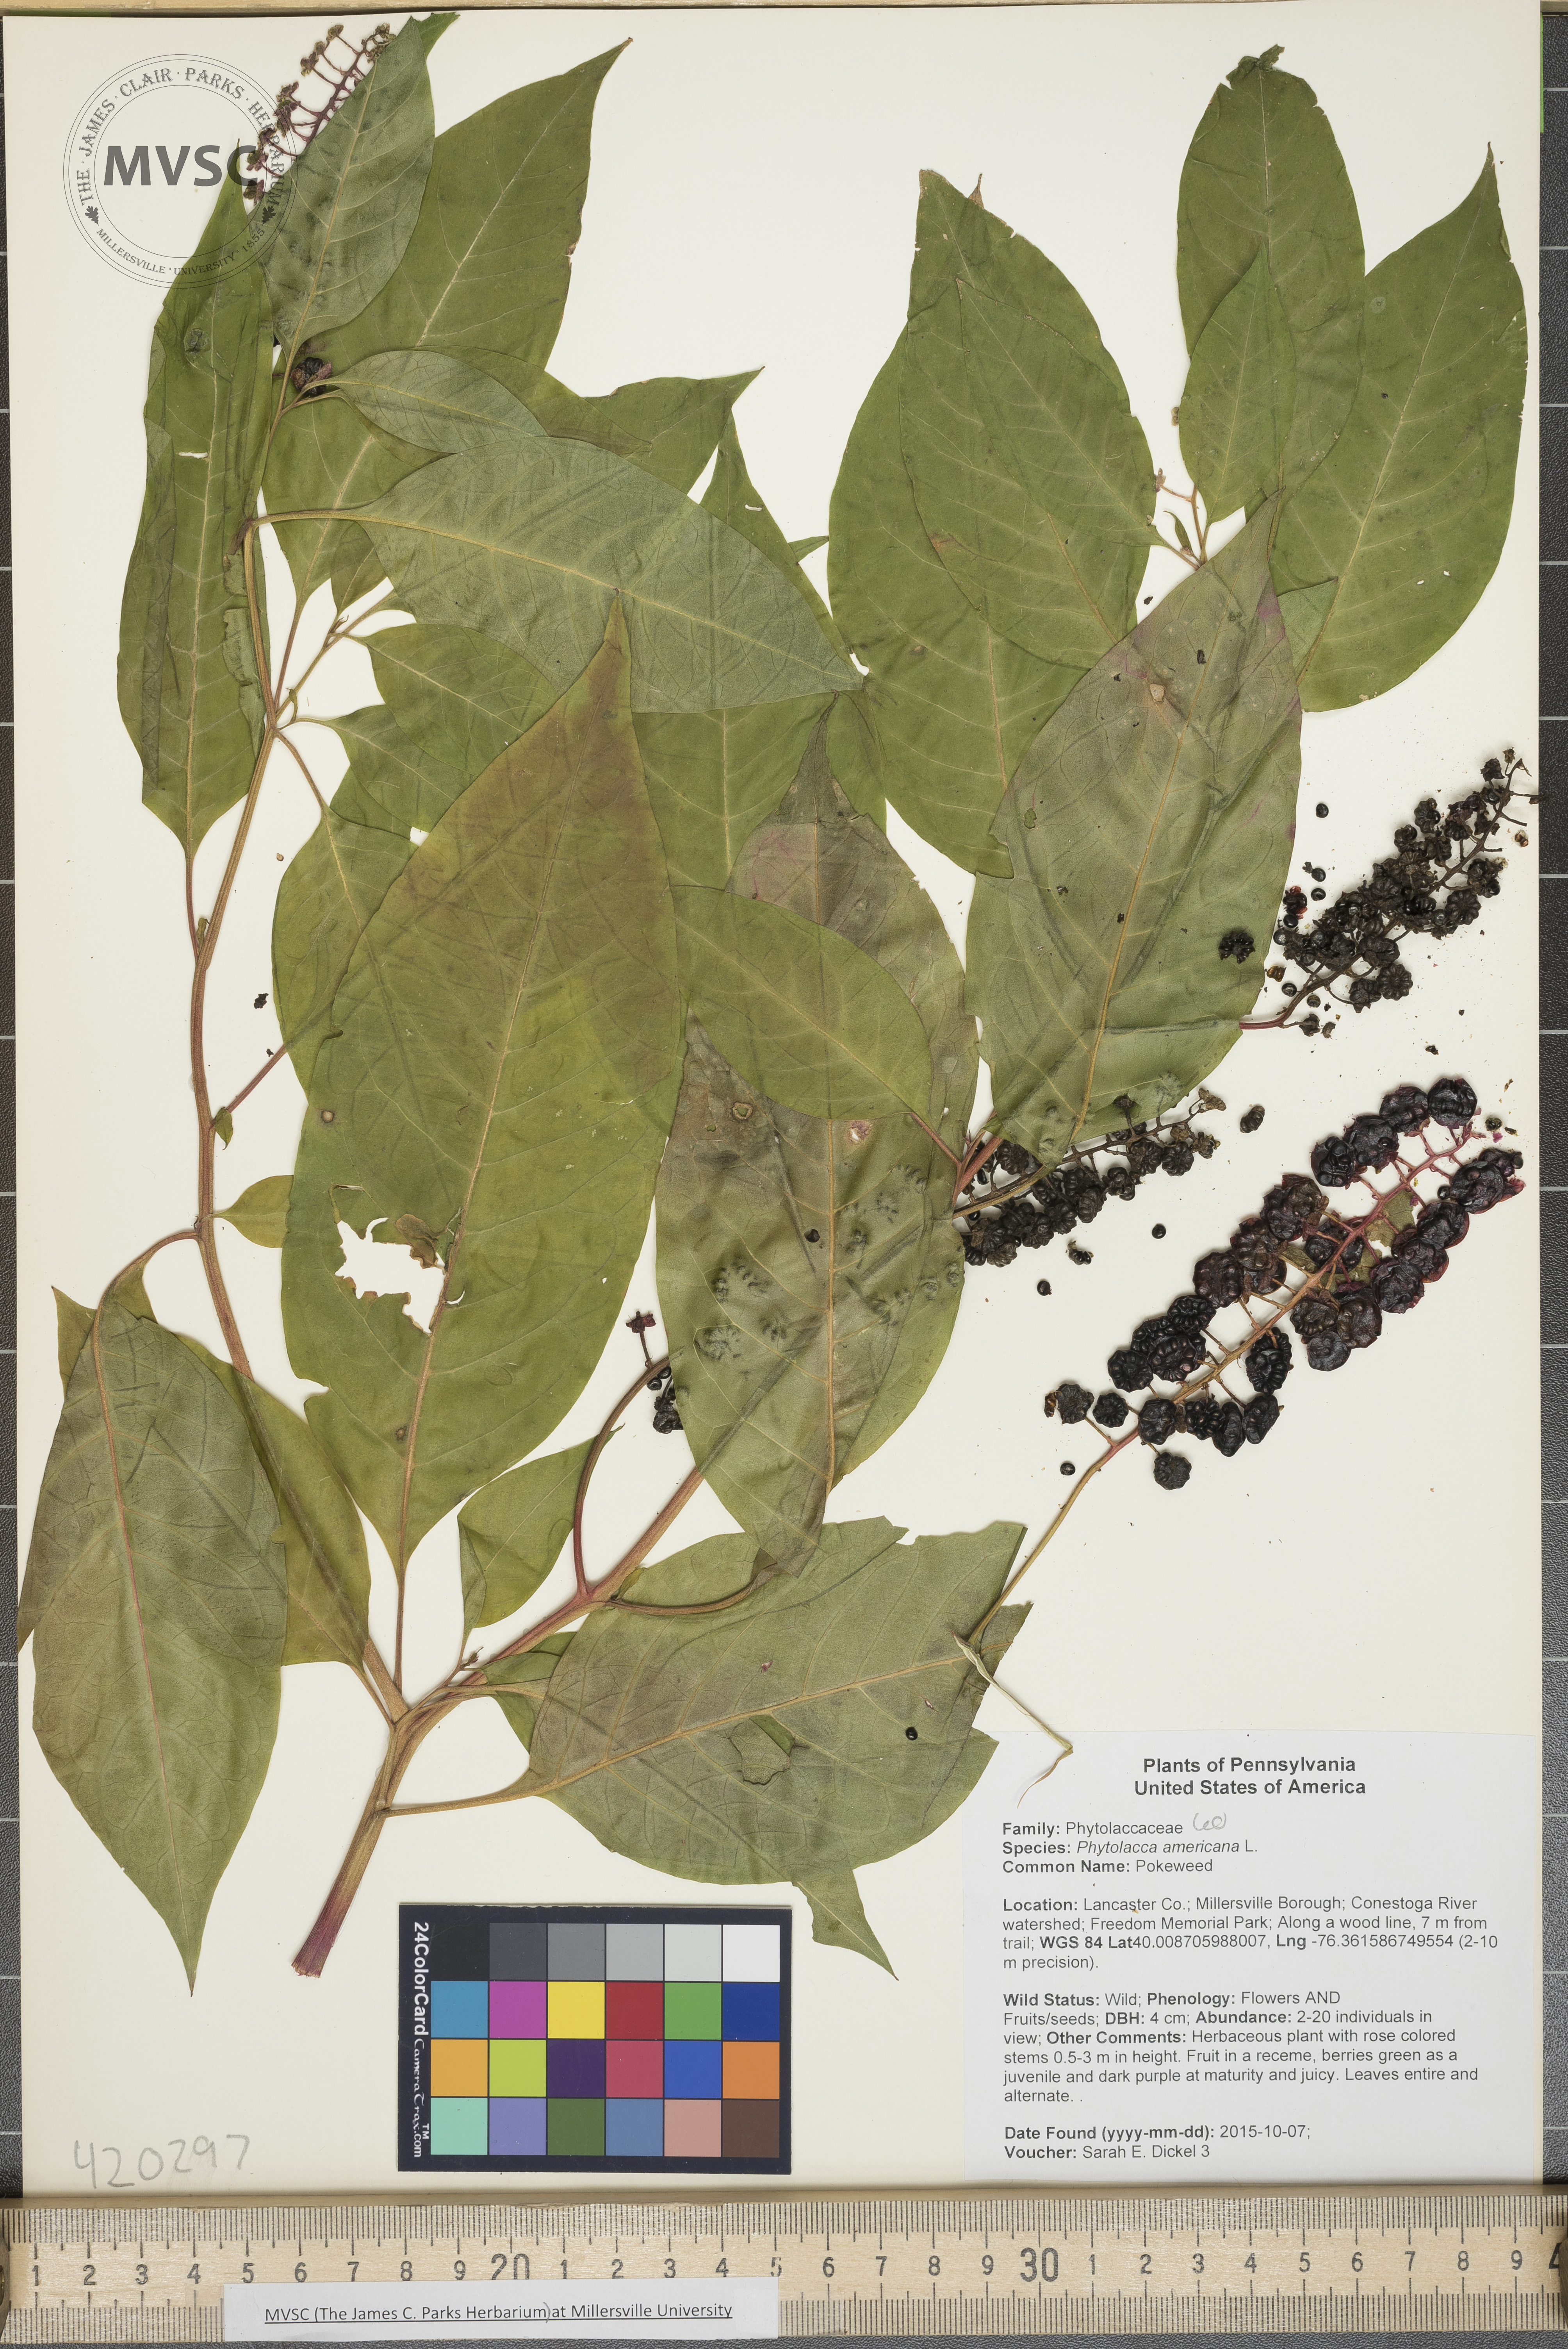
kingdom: Plantae
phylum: Tracheophyta
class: Magnoliopsida
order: Caryophyllales
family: Phytolaccaceae
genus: Phytolacca
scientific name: Phytolacca americana
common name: Pokeweed
